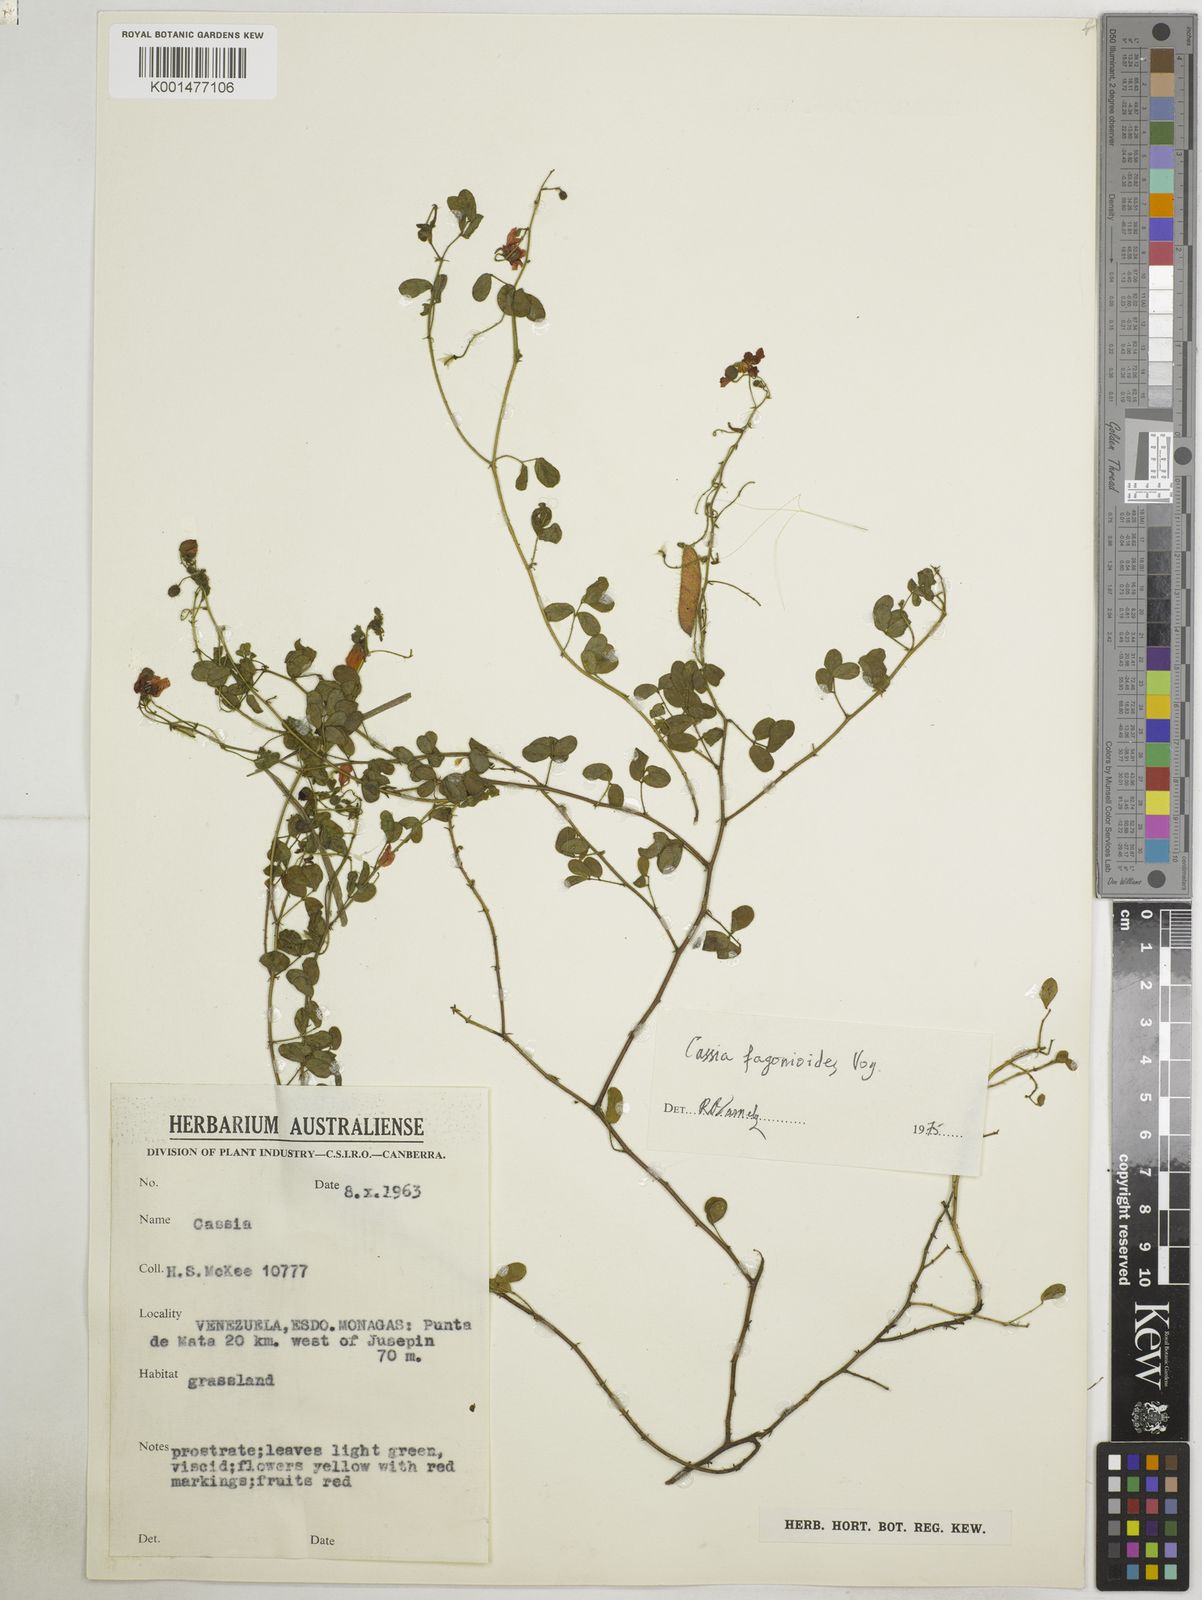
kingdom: Plantae
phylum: Tracheophyta
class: Magnoliopsida
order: Fabales
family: Fabaceae
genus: Chamaecrista
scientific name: Chamaecrista fagonioides
